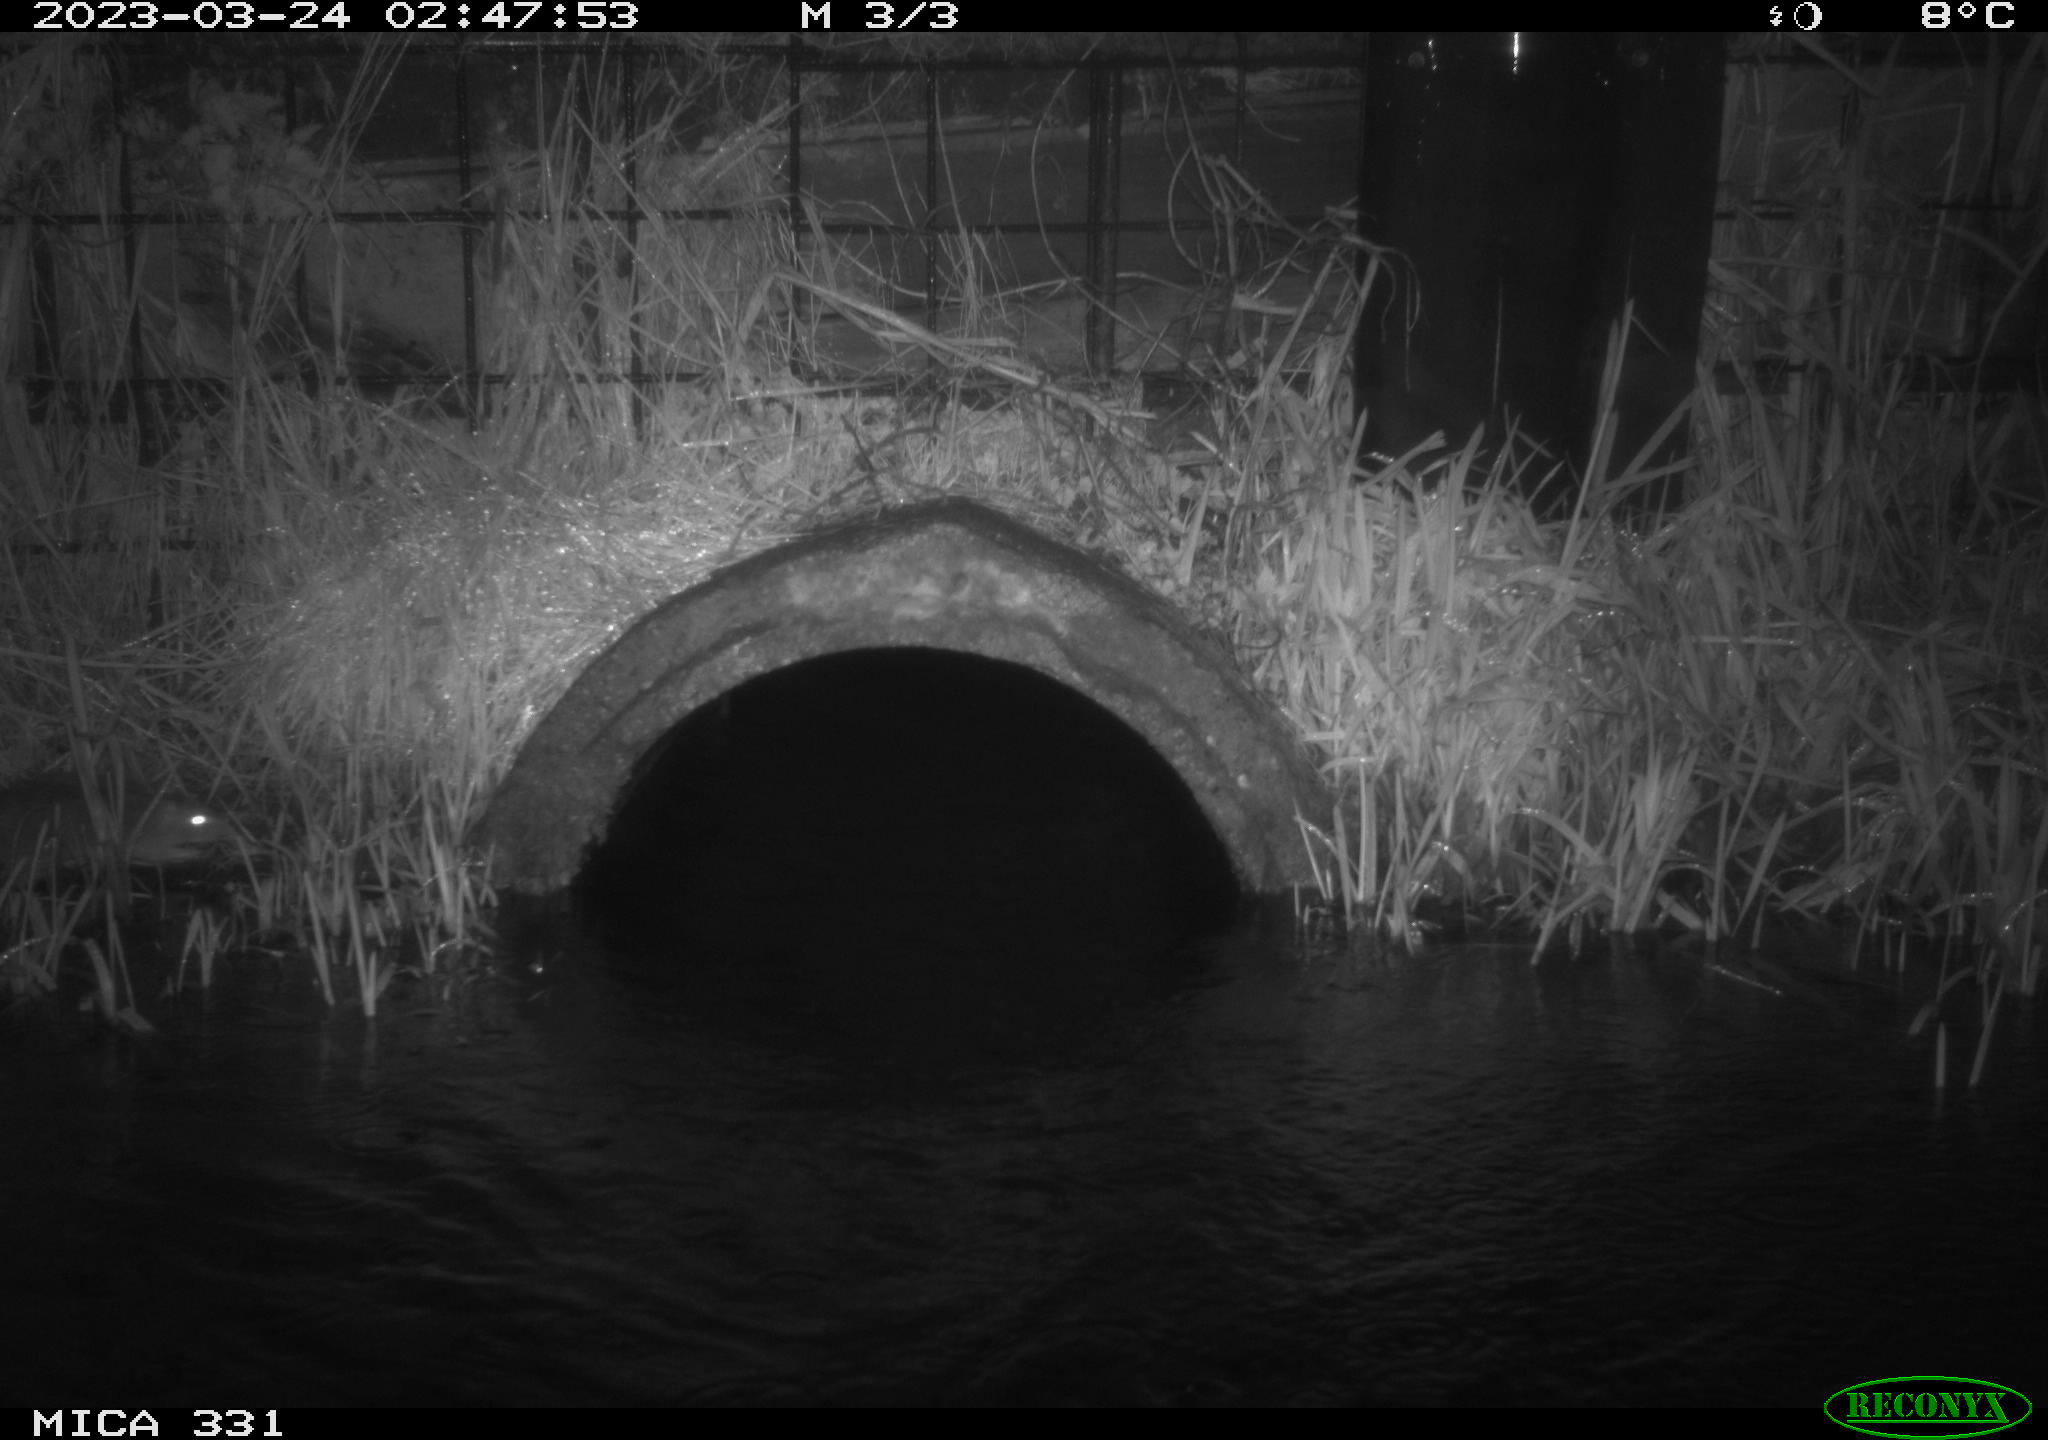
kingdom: Animalia
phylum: Chordata
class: Mammalia
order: Rodentia
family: Muridae
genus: Rattus
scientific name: Rattus norvegicus
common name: Brown rat
